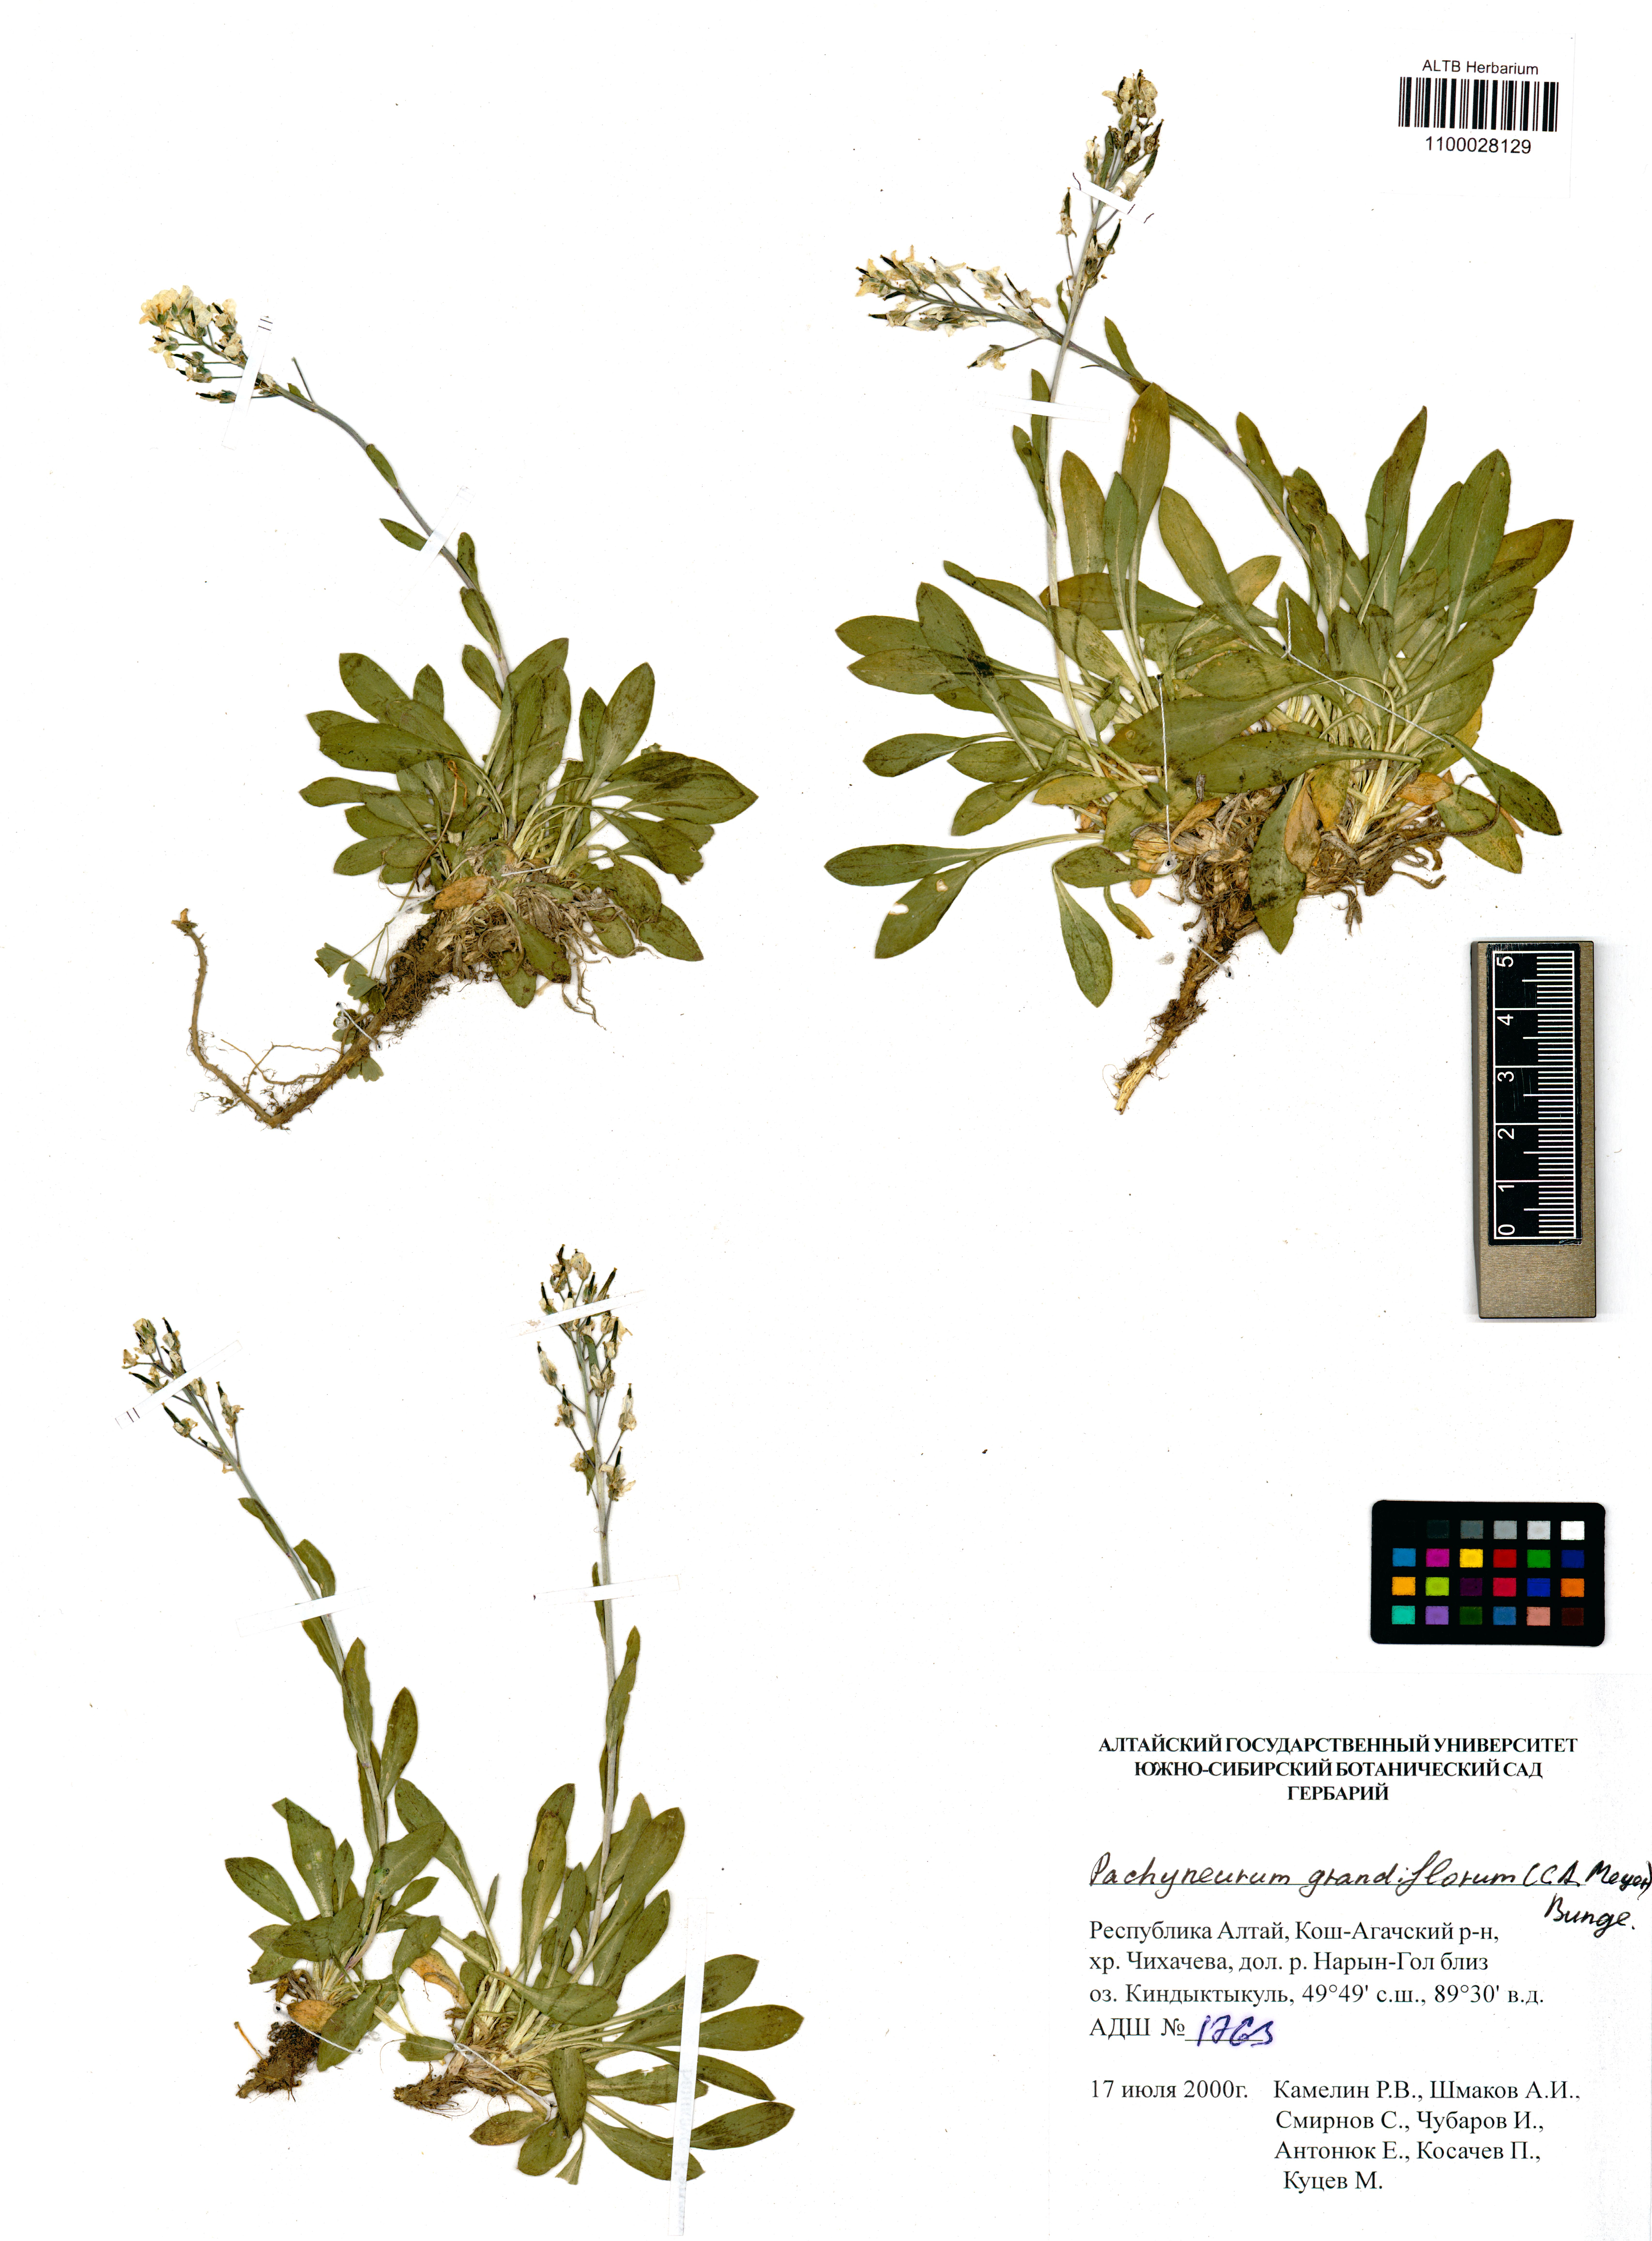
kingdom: Plantae
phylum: Tracheophyta
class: Magnoliopsida
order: Brassicales
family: Brassicaceae
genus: Pachyneurum
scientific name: Pachyneurum grandiflorum
